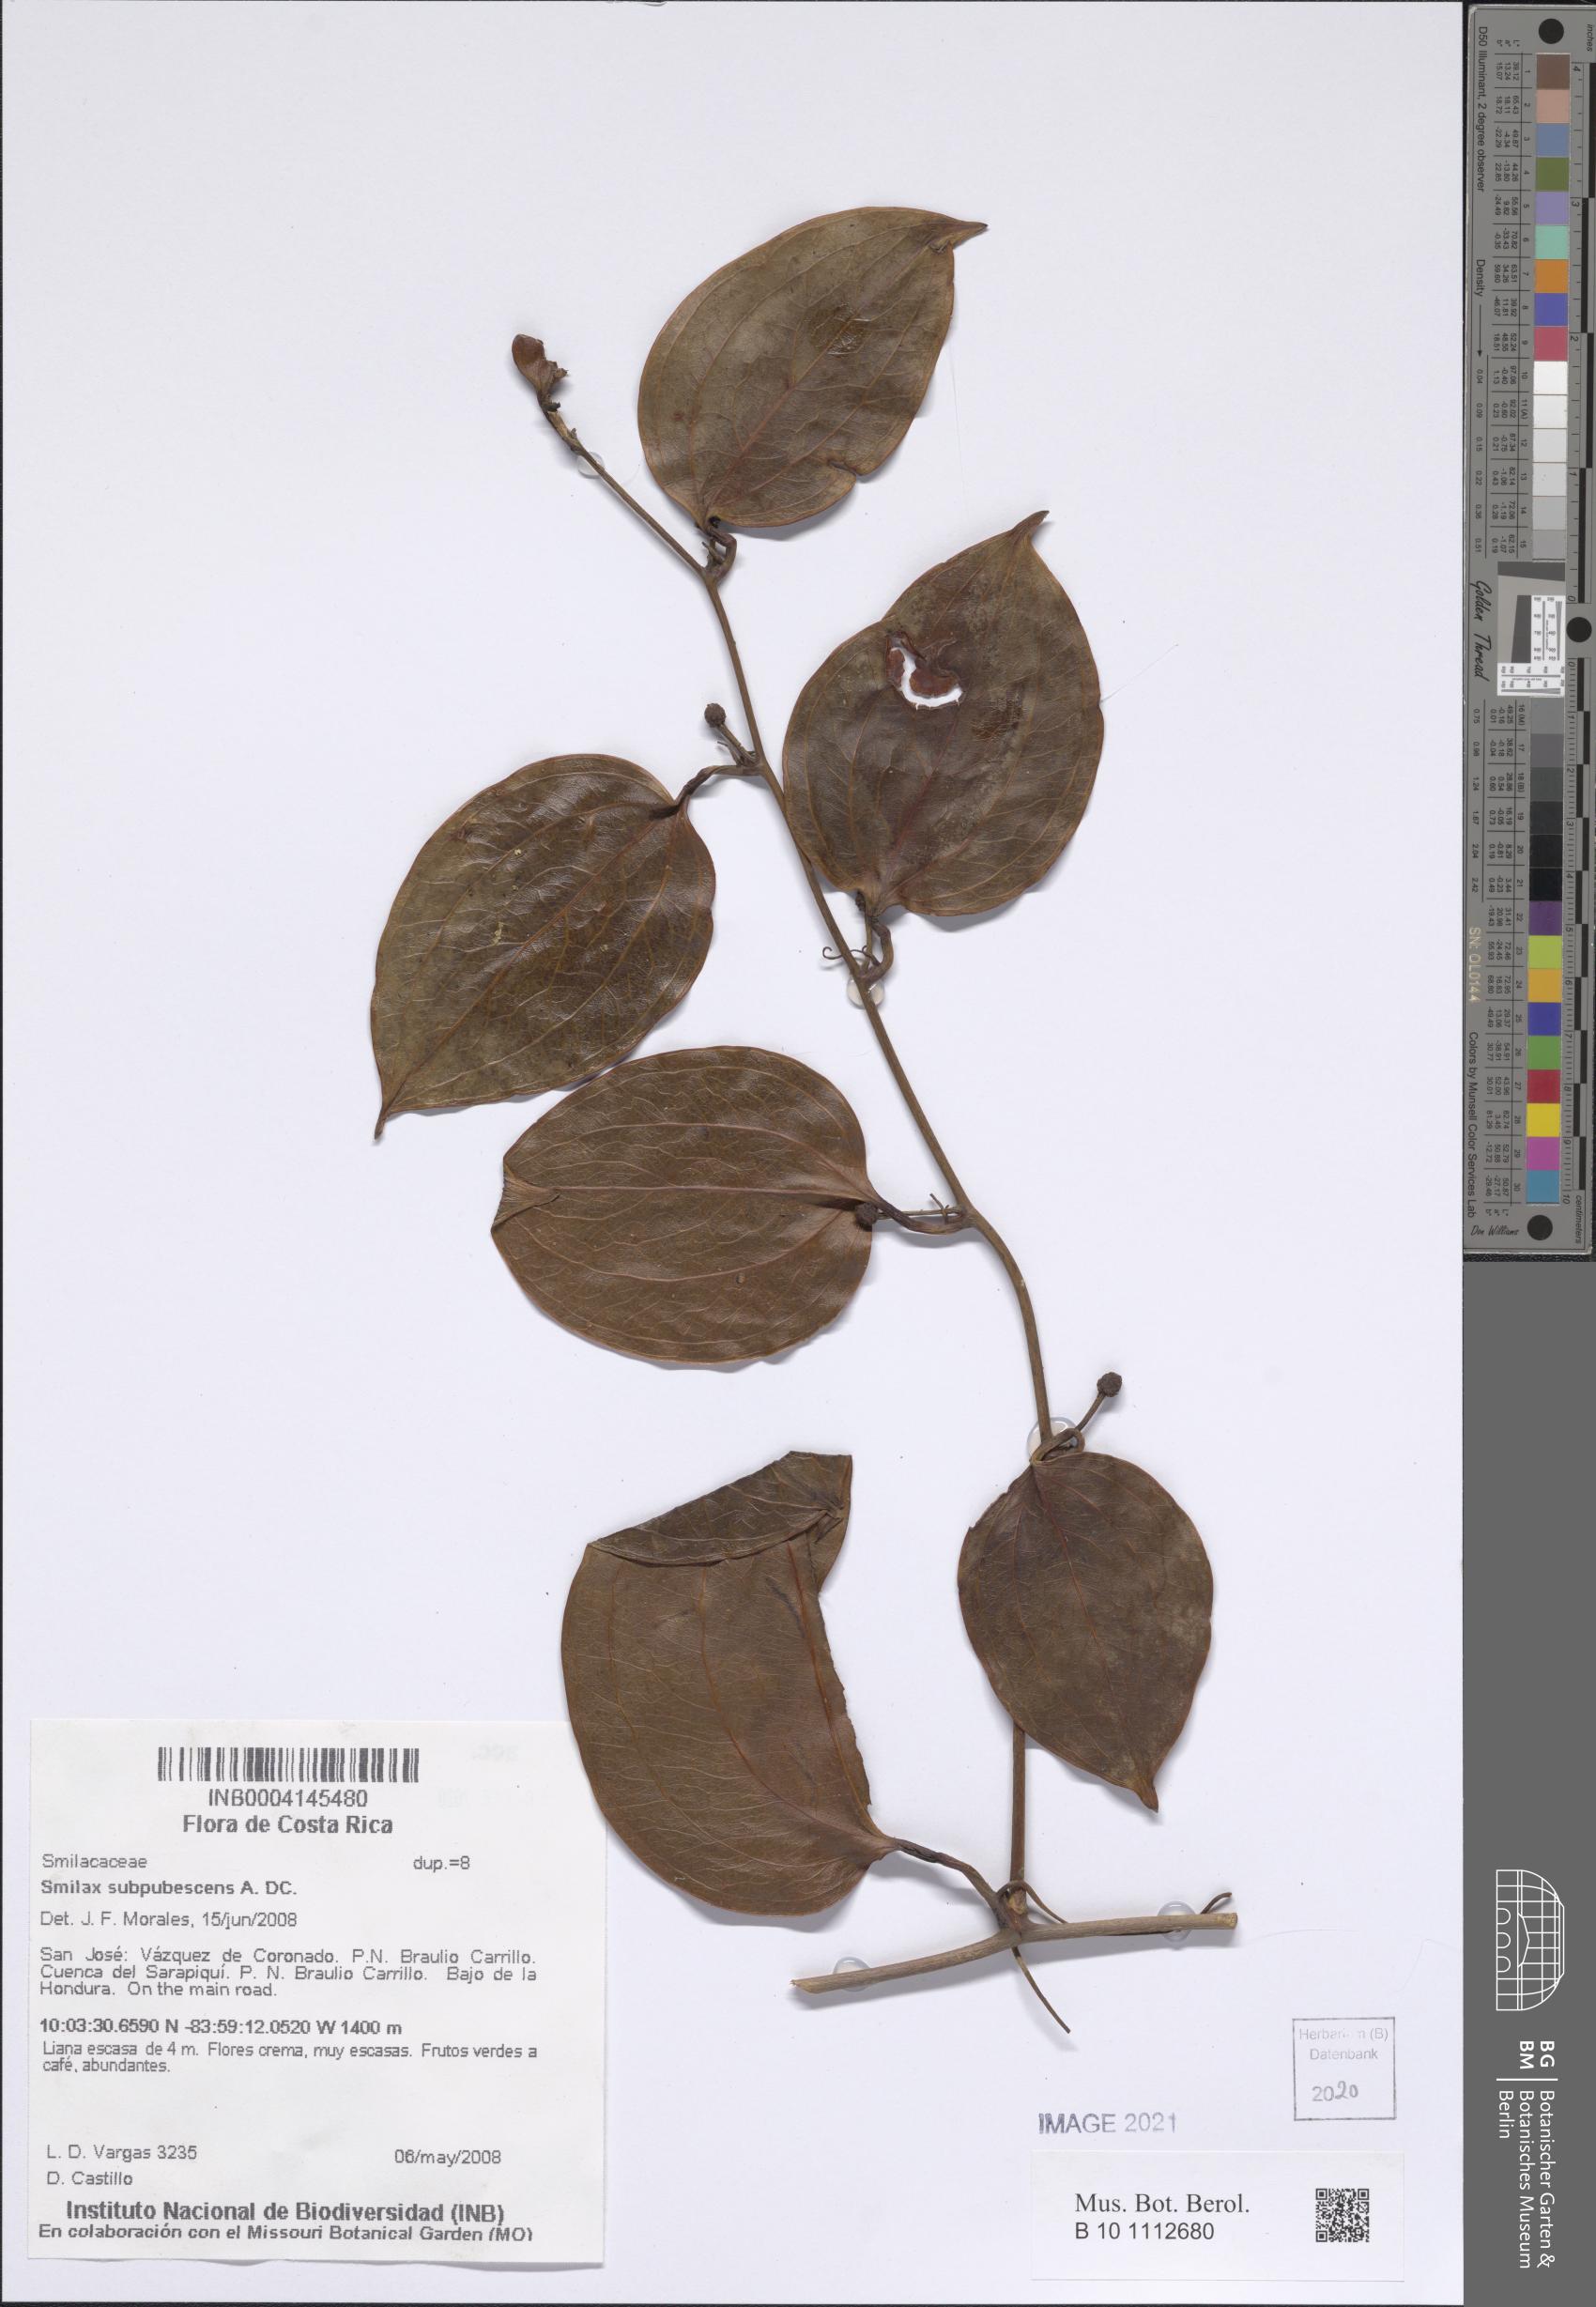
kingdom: Plantae
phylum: Tracheophyta
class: Liliopsida
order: Liliales
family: Smilacaceae
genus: Smilax
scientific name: Smilax subpubescens
